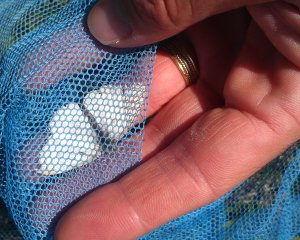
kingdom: Animalia
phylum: Arthropoda
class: Insecta
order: Lepidoptera
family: Pieridae
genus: Pieris
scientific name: Pieris rapae
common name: Cabbage White
